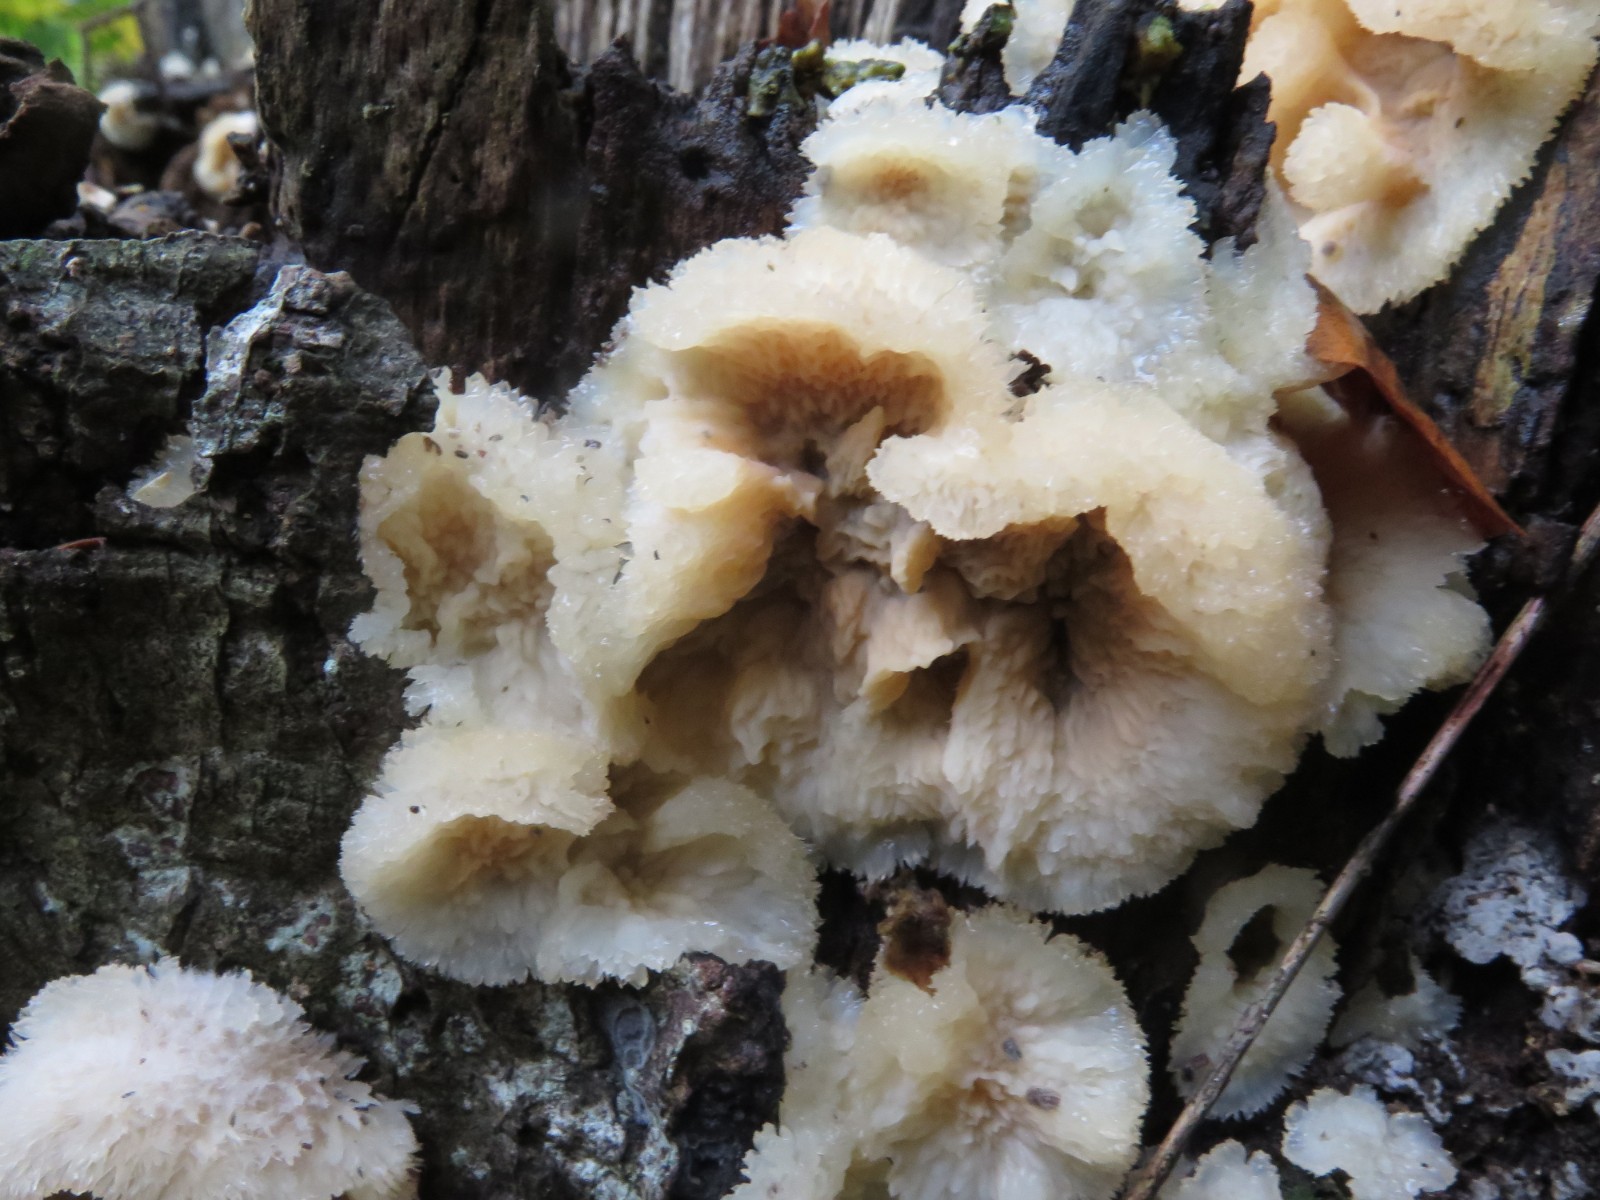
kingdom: Fungi
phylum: Basidiomycota
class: Agaricomycetes
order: Polyporales
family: Meruliaceae
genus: Phlebia
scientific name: Phlebia tremellosa
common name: bævrende åresvamp
